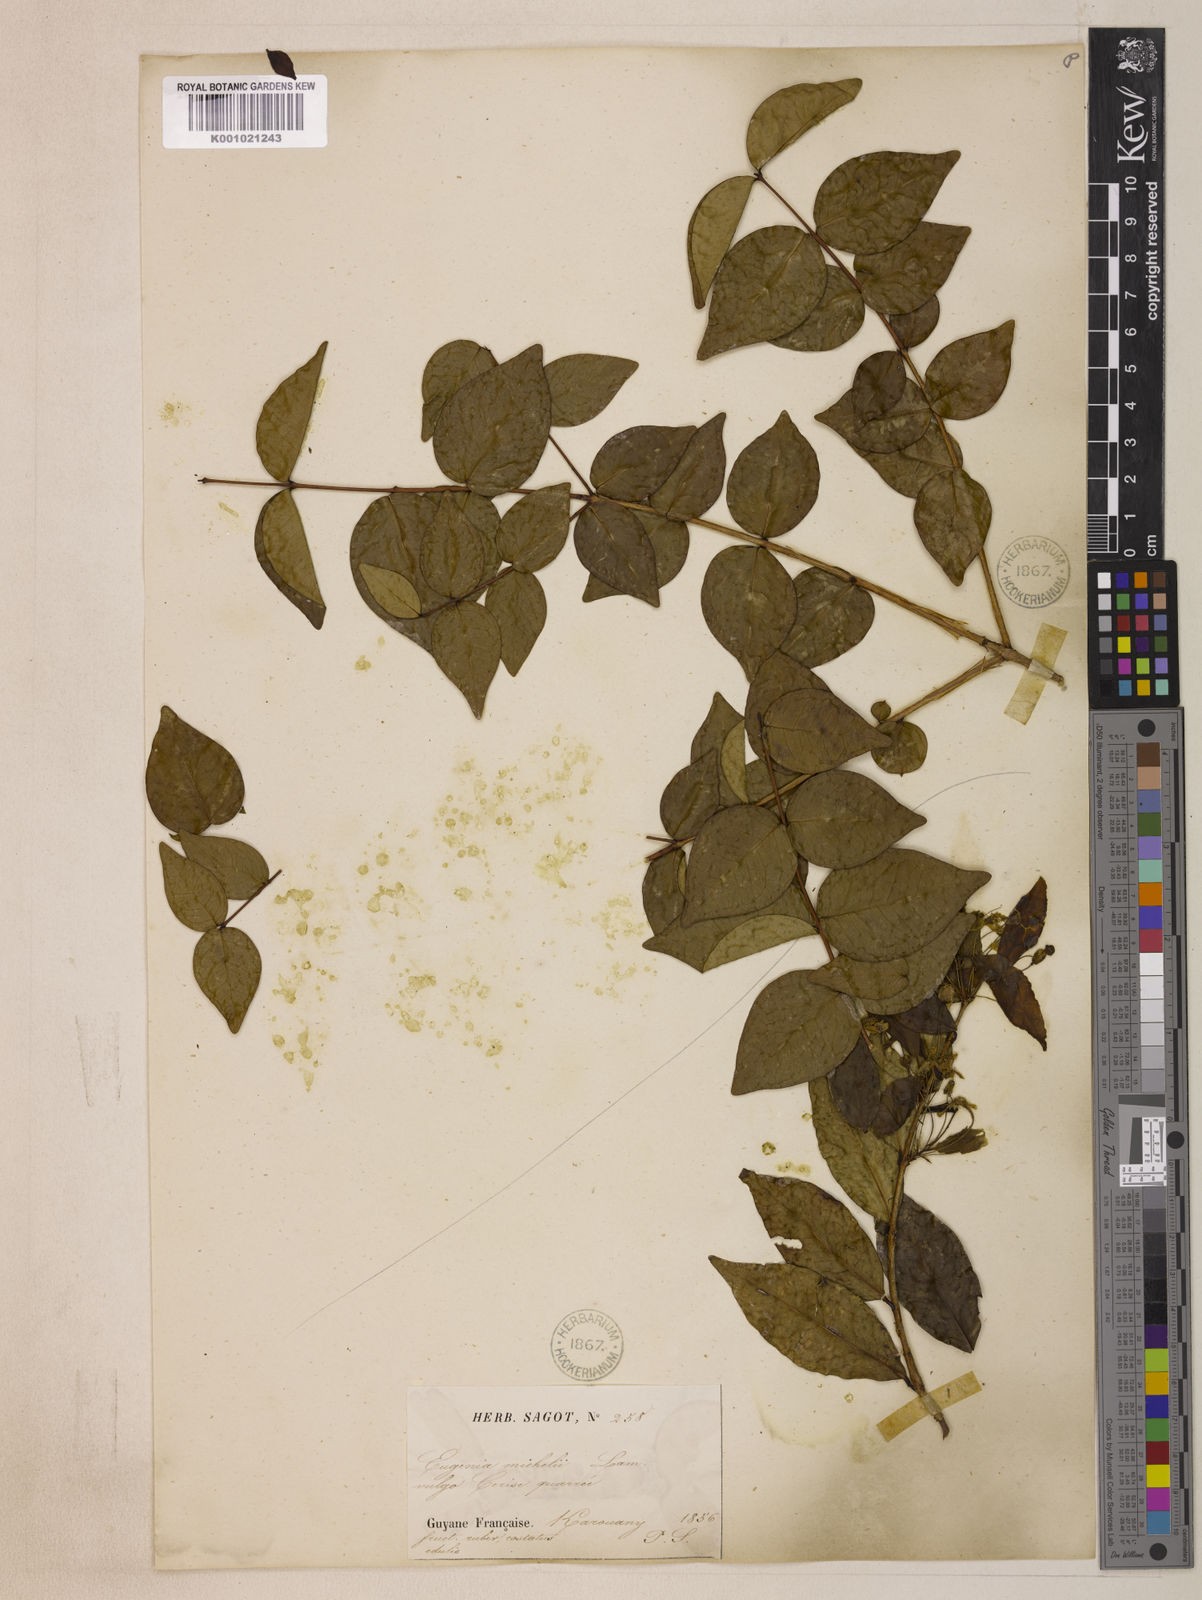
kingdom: Plantae
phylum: Tracheophyta
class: Magnoliopsida
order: Myrtales
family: Myrtaceae
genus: Eugenia
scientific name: Eugenia uniflora
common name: Surinam cherry
